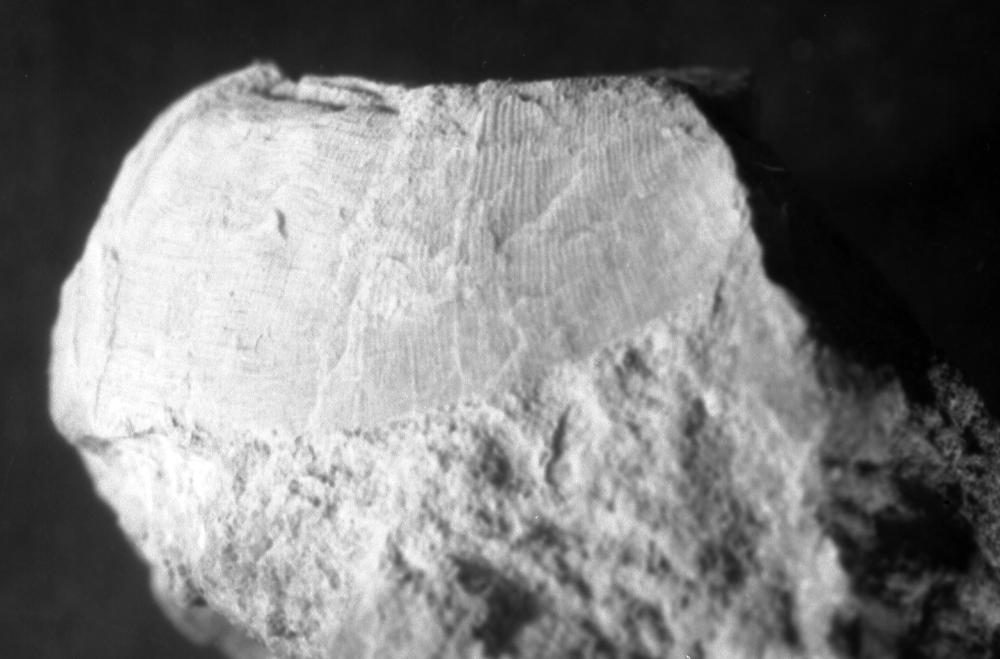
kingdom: Animalia
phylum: Brachiopoda
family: Rafinesquinidae
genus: Kiaeromena
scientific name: Kiaeromena
